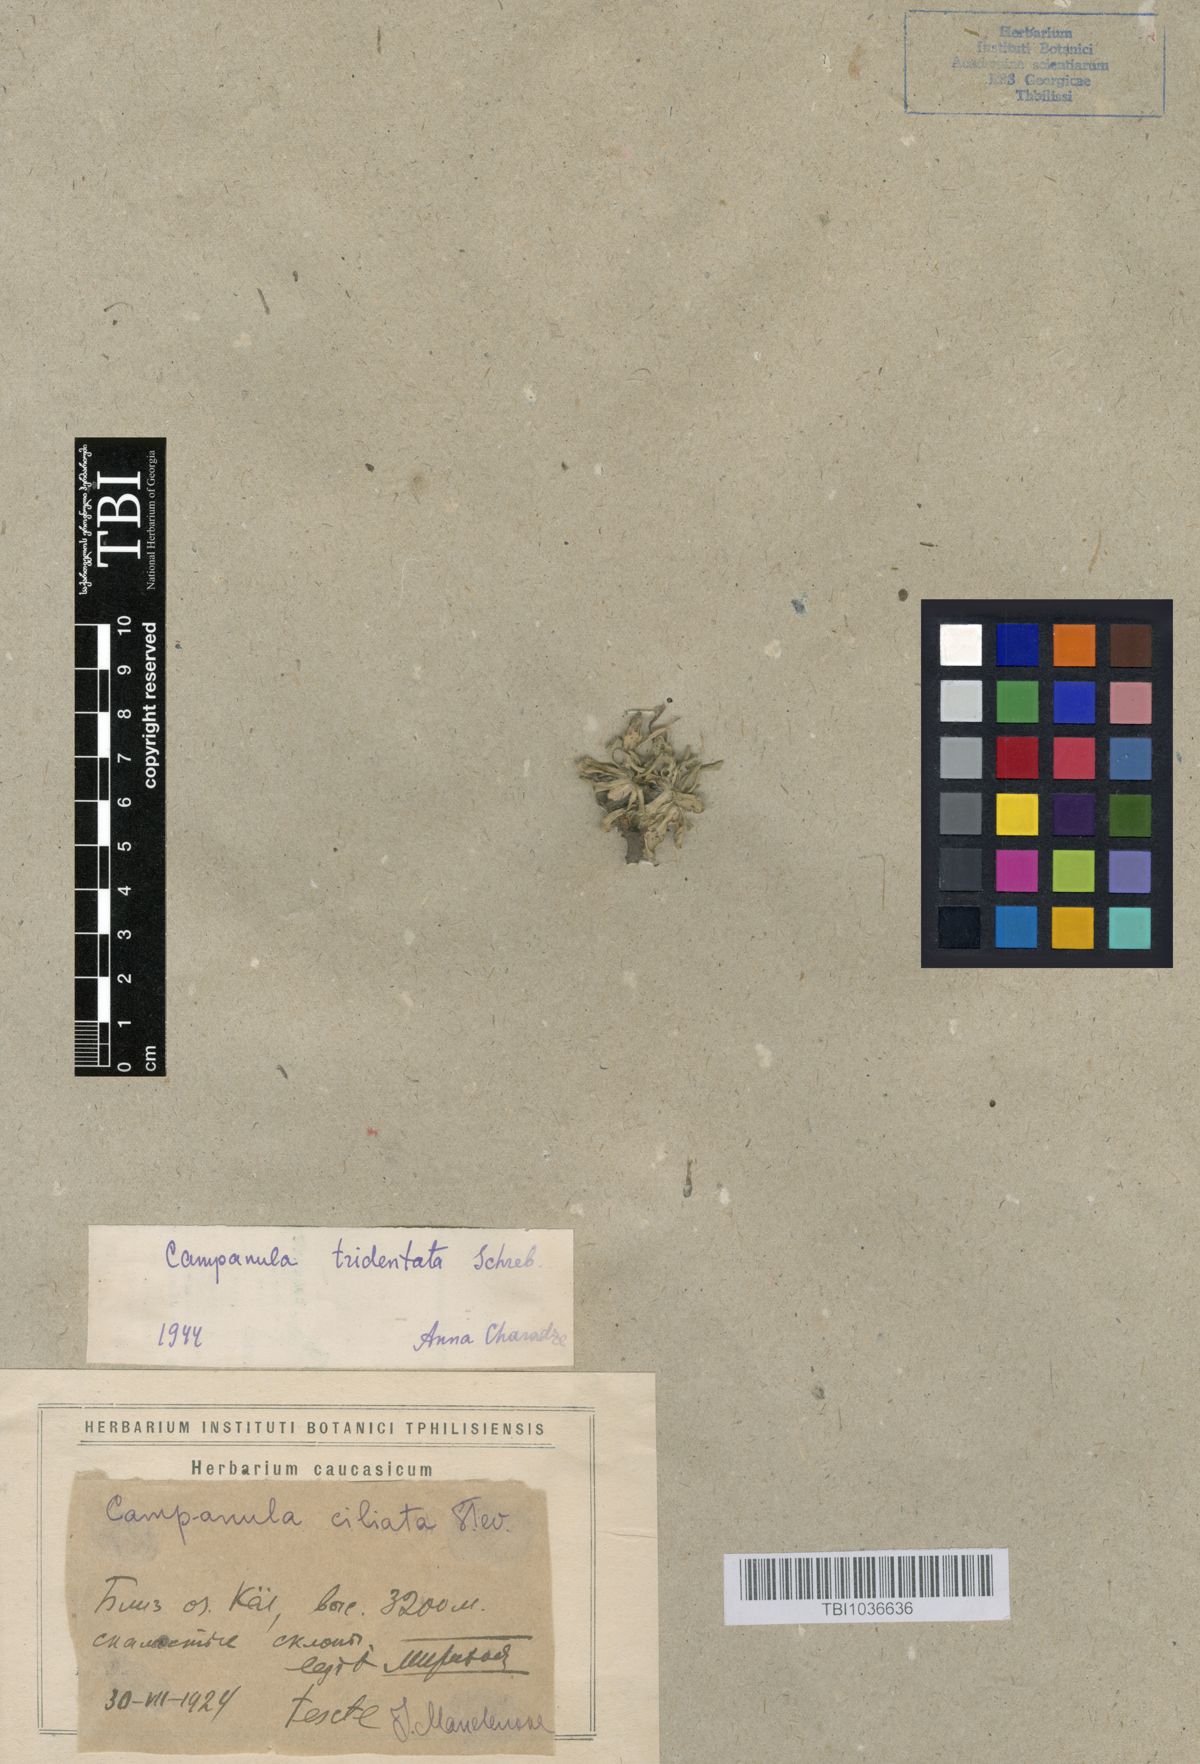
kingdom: Plantae
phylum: Tracheophyta
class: Magnoliopsida
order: Asterales
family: Campanulaceae
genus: Campanula
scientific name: Campanula tridentata
